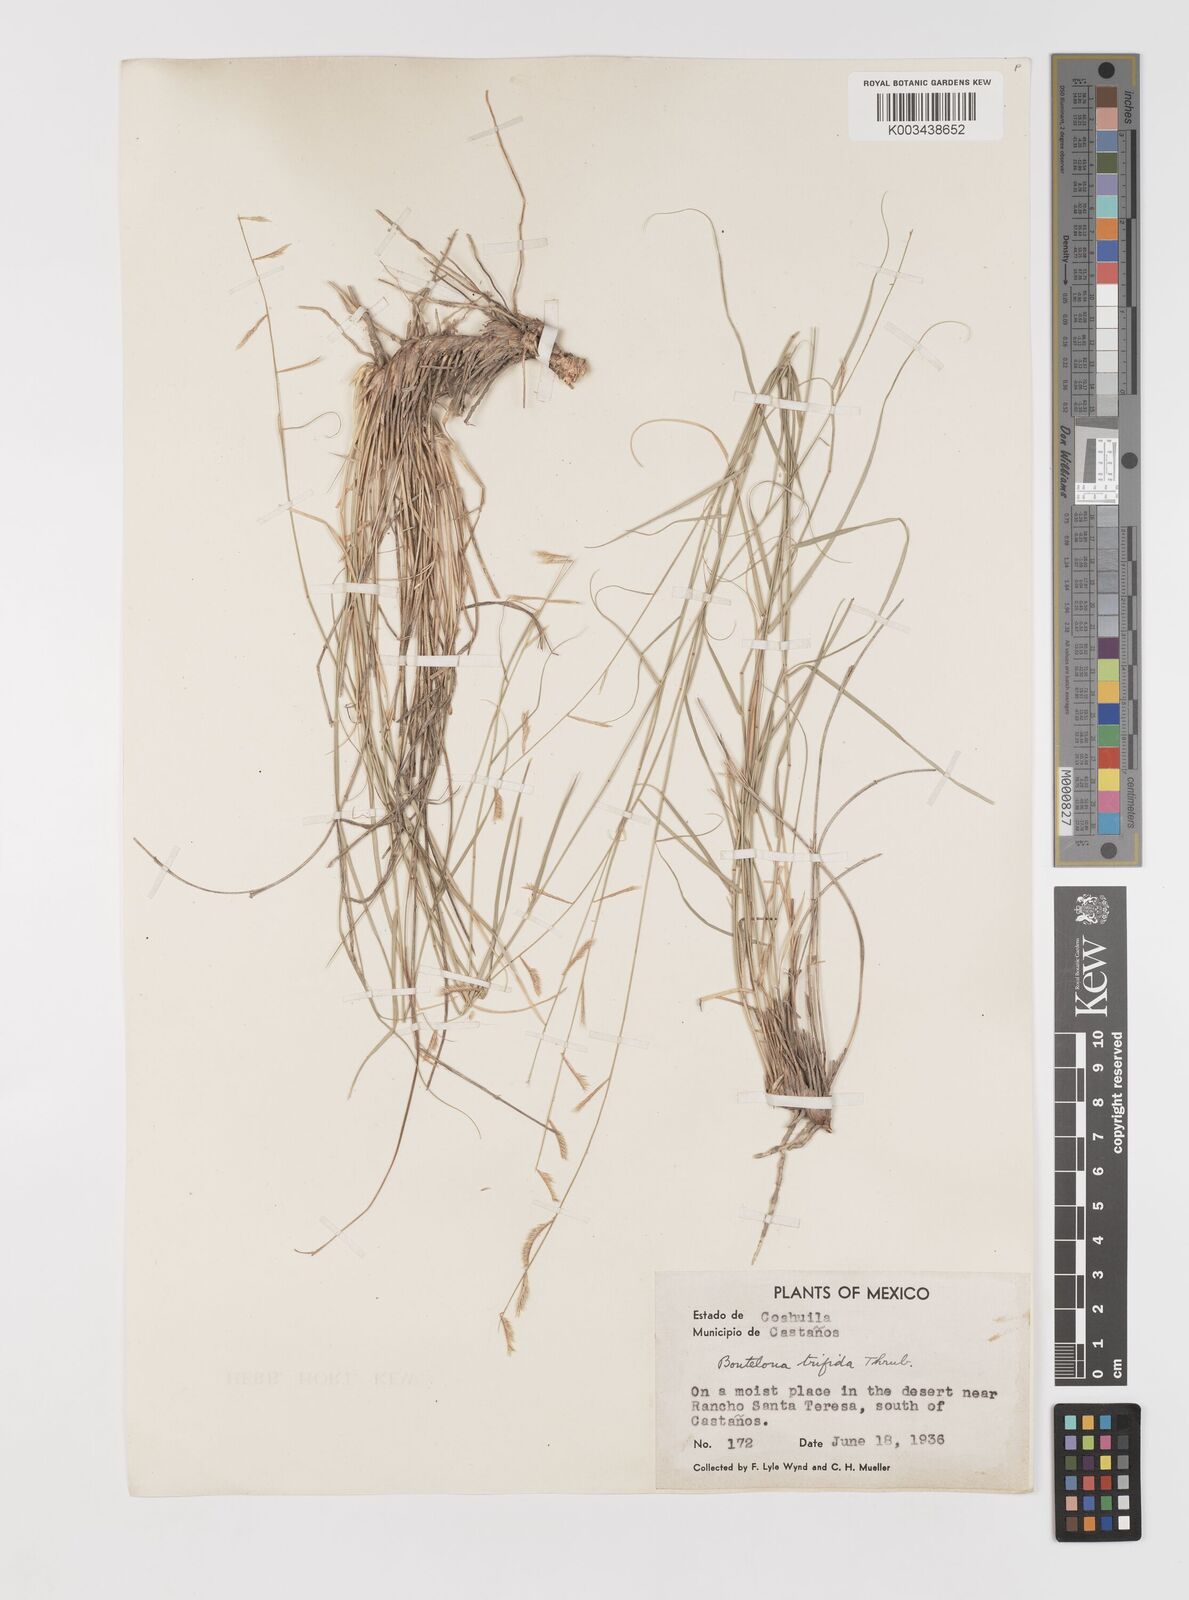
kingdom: Plantae
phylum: Tracheophyta
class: Liliopsida
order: Poales
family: Poaceae
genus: Bouteloua
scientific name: Bouteloua
